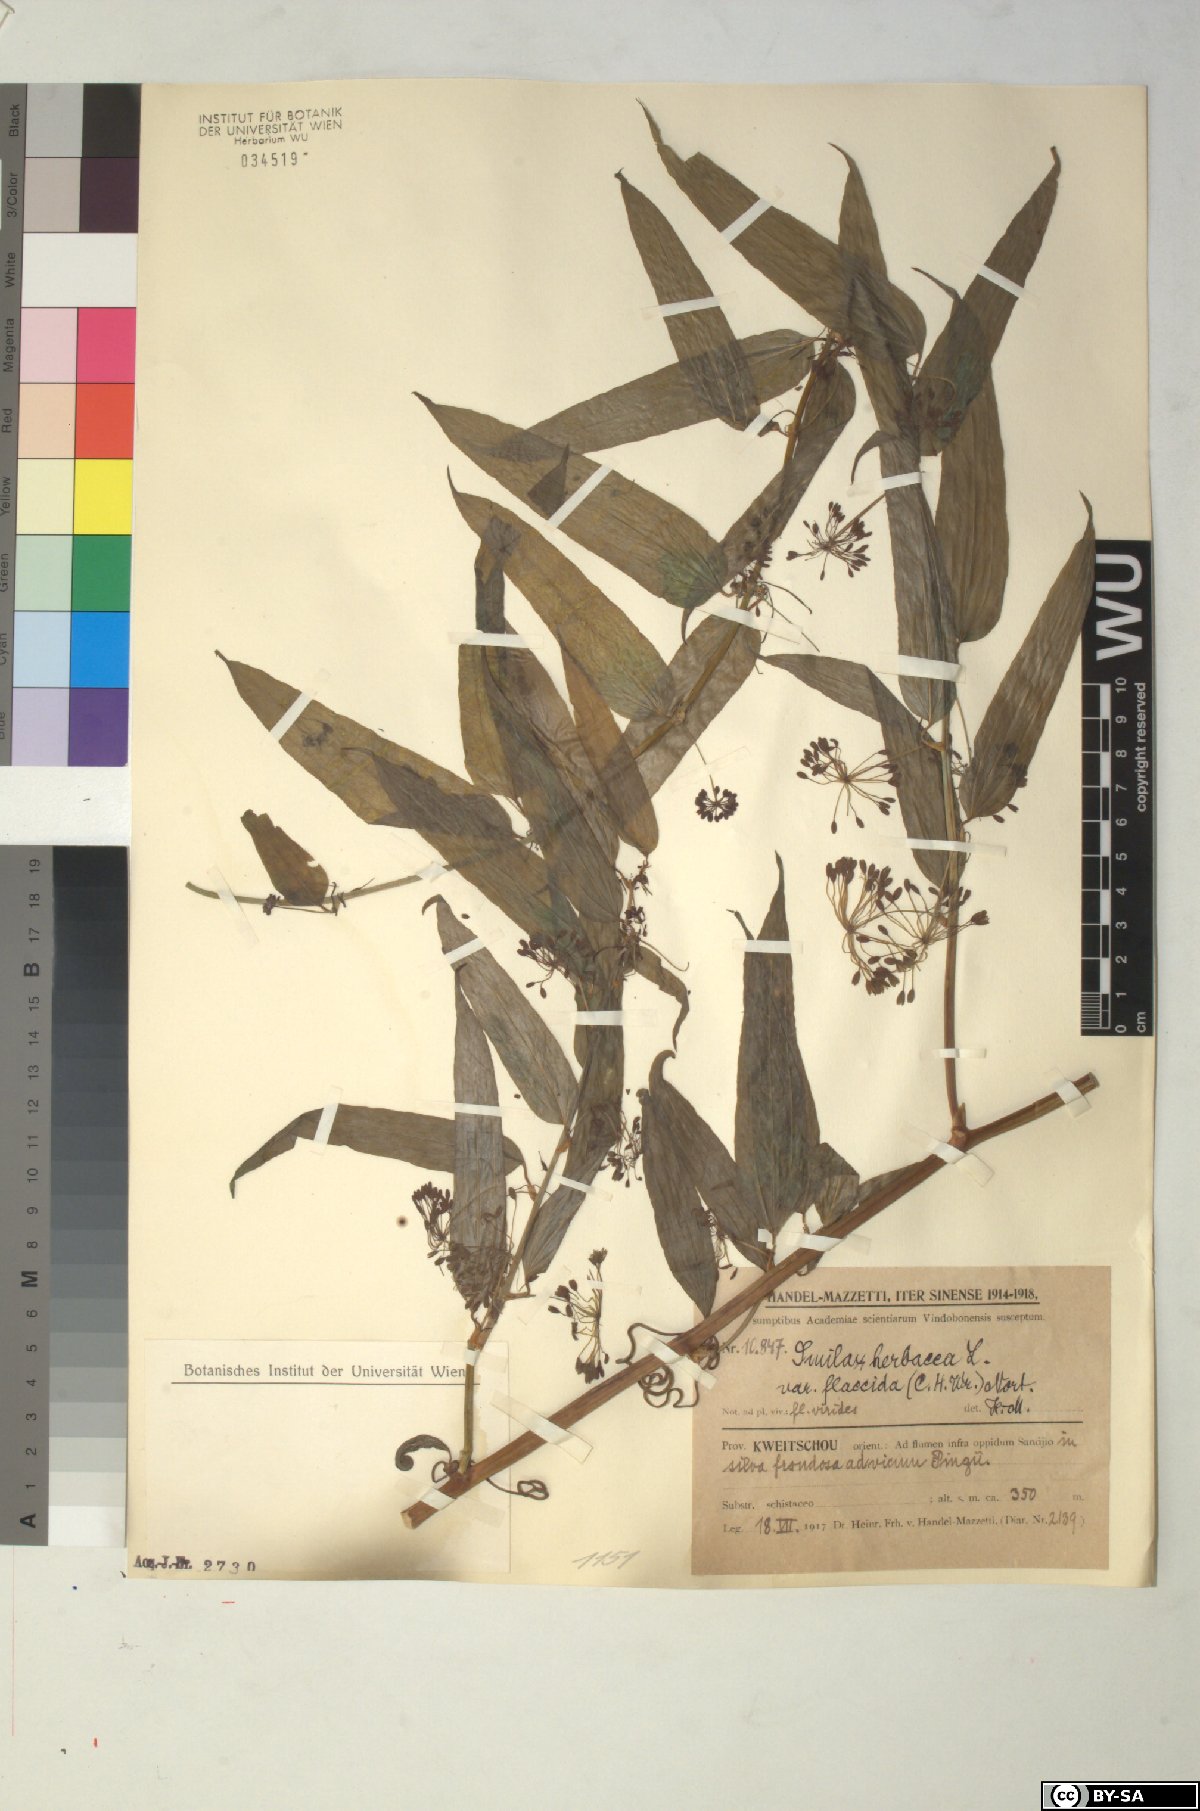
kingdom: Plantae
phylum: Tracheophyta
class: Liliopsida
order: Liliales
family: Smilacaceae
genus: Smilax
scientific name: Smilax nipponica
